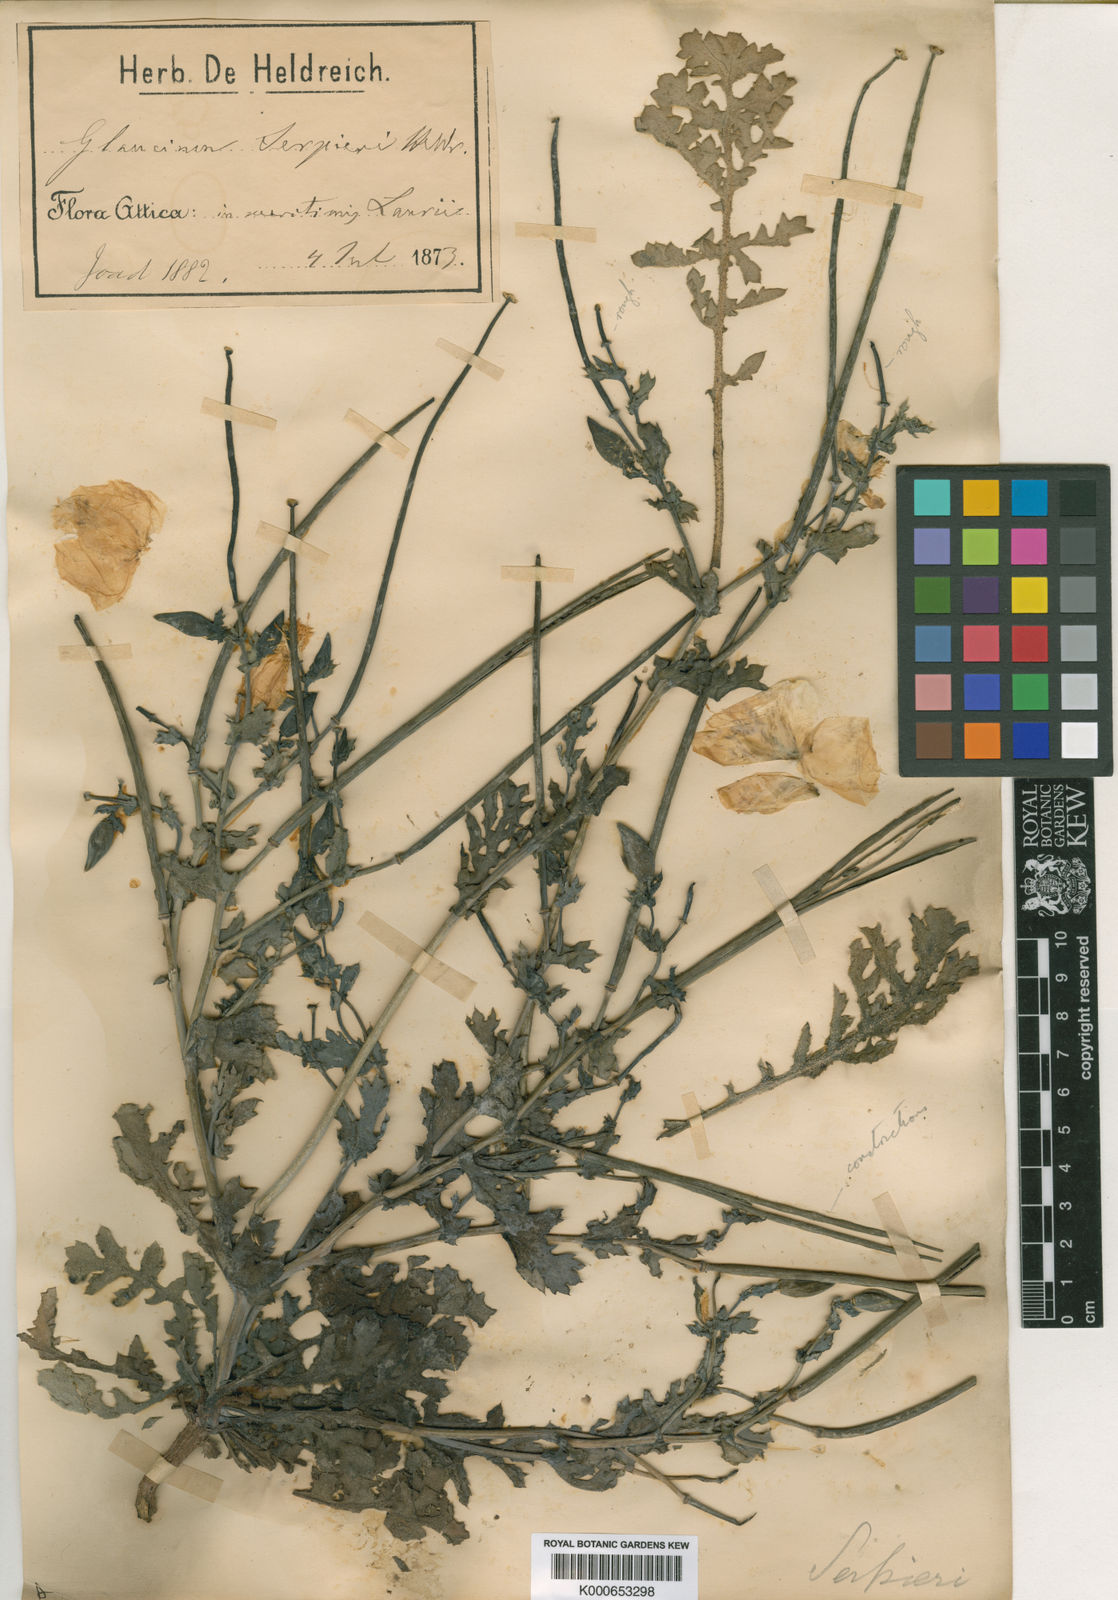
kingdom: Plantae
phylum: Tracheophyta
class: Magnoliopsida
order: Ranunculales
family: Papaveraceae
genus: Glaucium
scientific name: Glaucium flavum
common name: Yellow horned-poppy
